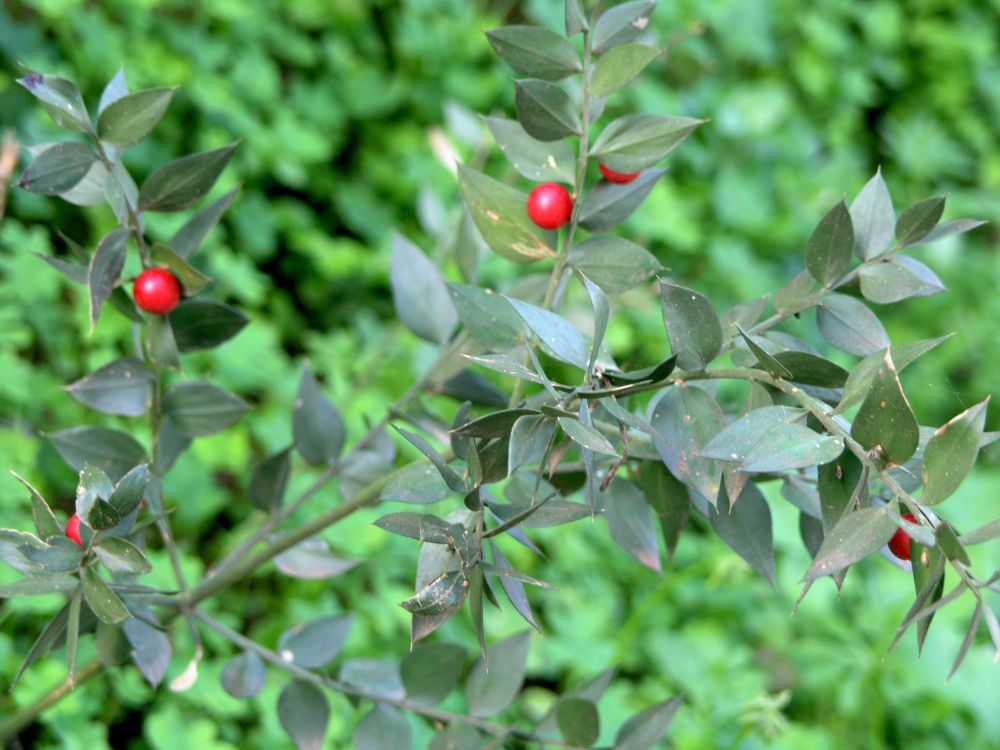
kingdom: Plantae
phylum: Tracheophyta
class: Liliopsida
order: Asparagales
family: Asparagaceae
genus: Ruscus
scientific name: Ruscus aculeatus
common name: Butcher's-broom
